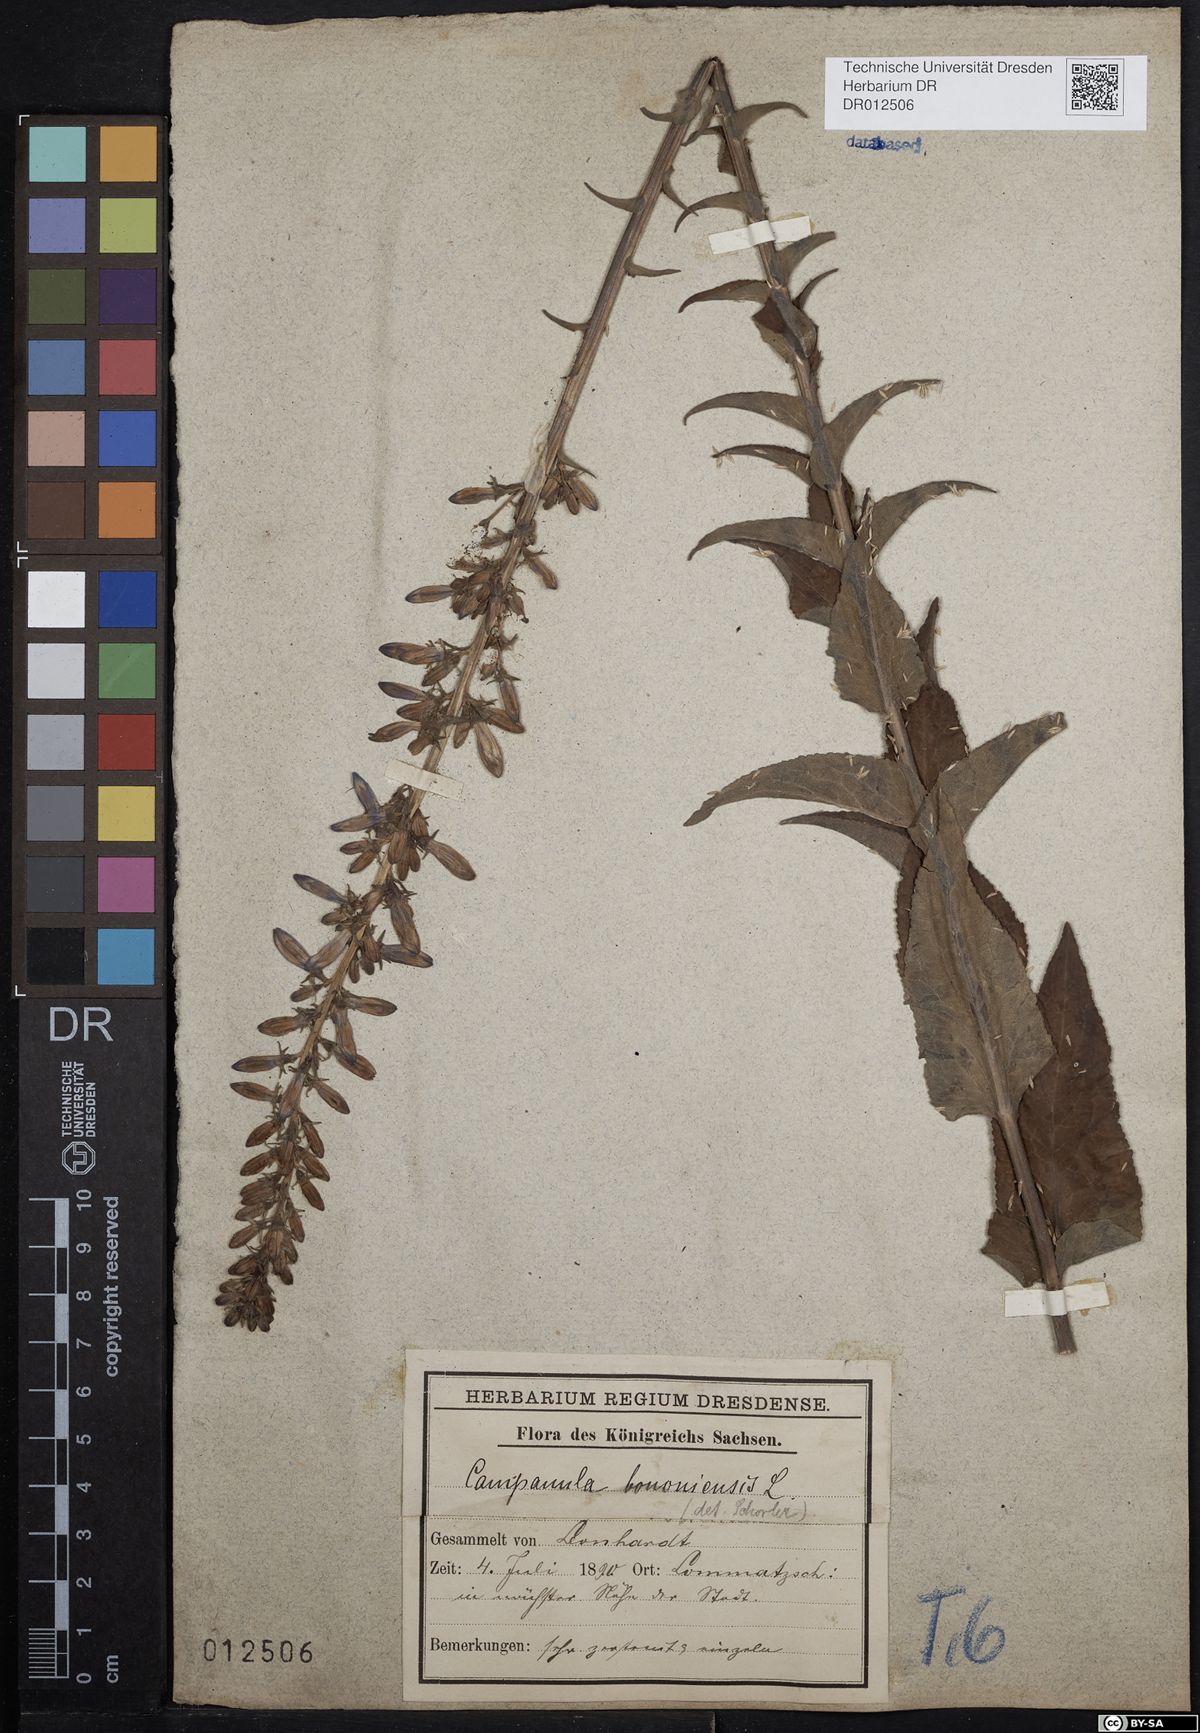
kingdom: Plantae
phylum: Tracheophyta
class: Magnoliopsida
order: Asterales
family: Campanulaceae
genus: Campanula
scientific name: Campanula bononiensis
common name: Pale bellflower
